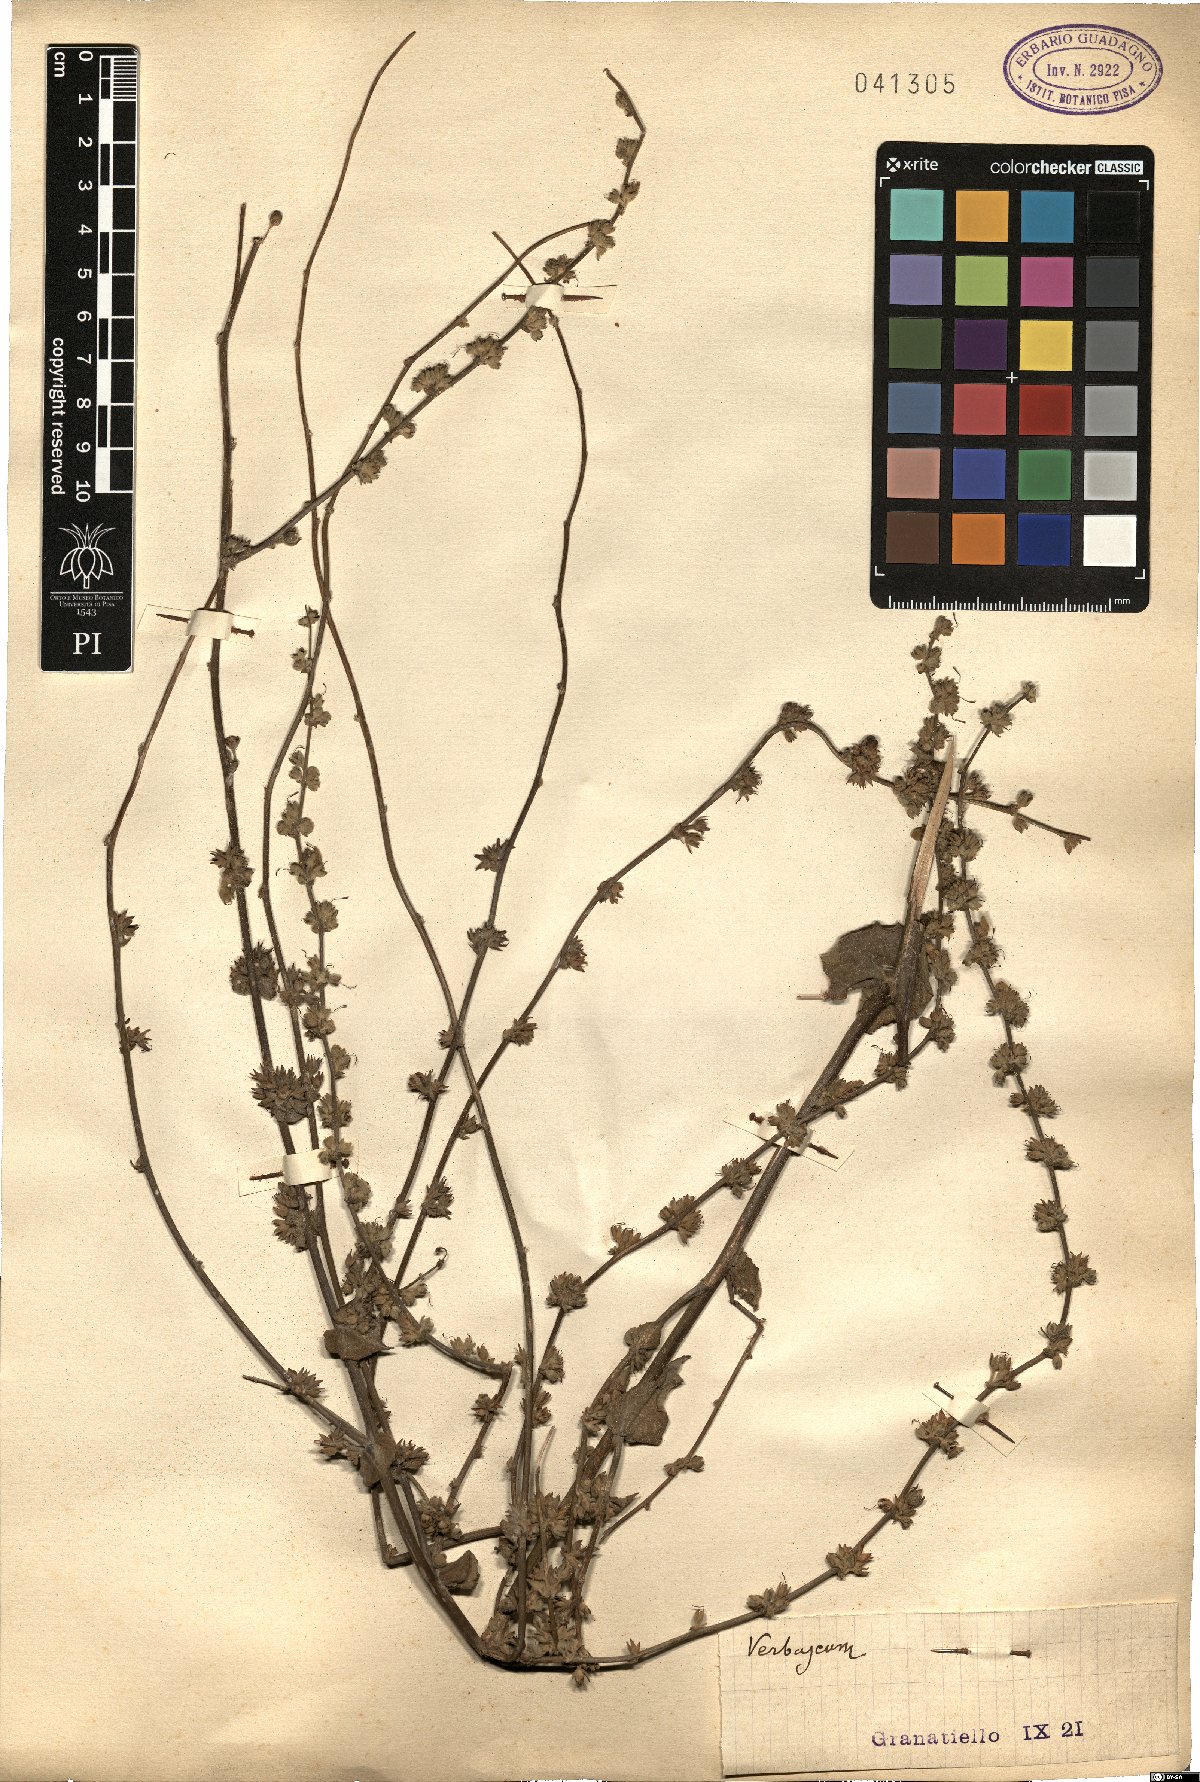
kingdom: Plantae
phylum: Tracheophyta
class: Magnoliopsida
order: Lamiales
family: Scrophulariaceae
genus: Verbascum
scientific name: Verbascum
